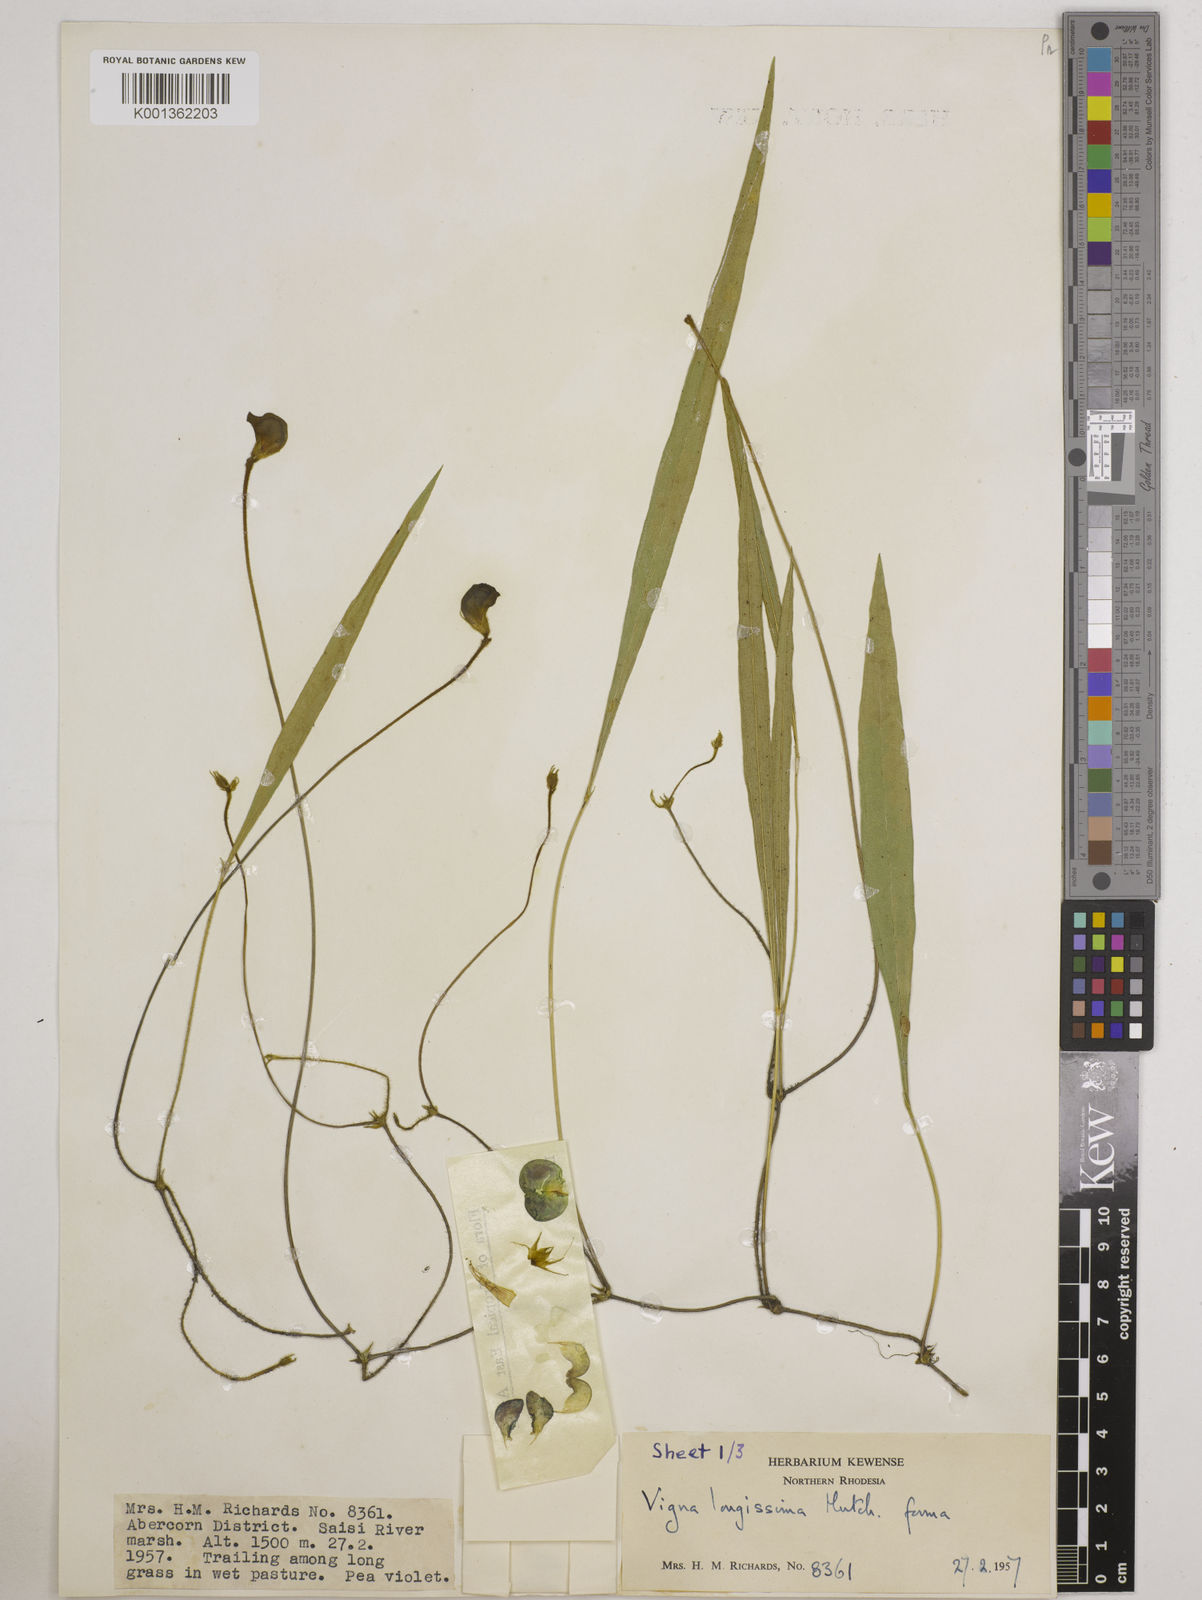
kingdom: Plantae
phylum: Tracheophyta
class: Magnoliopsida
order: Fabales
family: Fabaceae
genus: Vigna
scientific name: Vigna longissima
